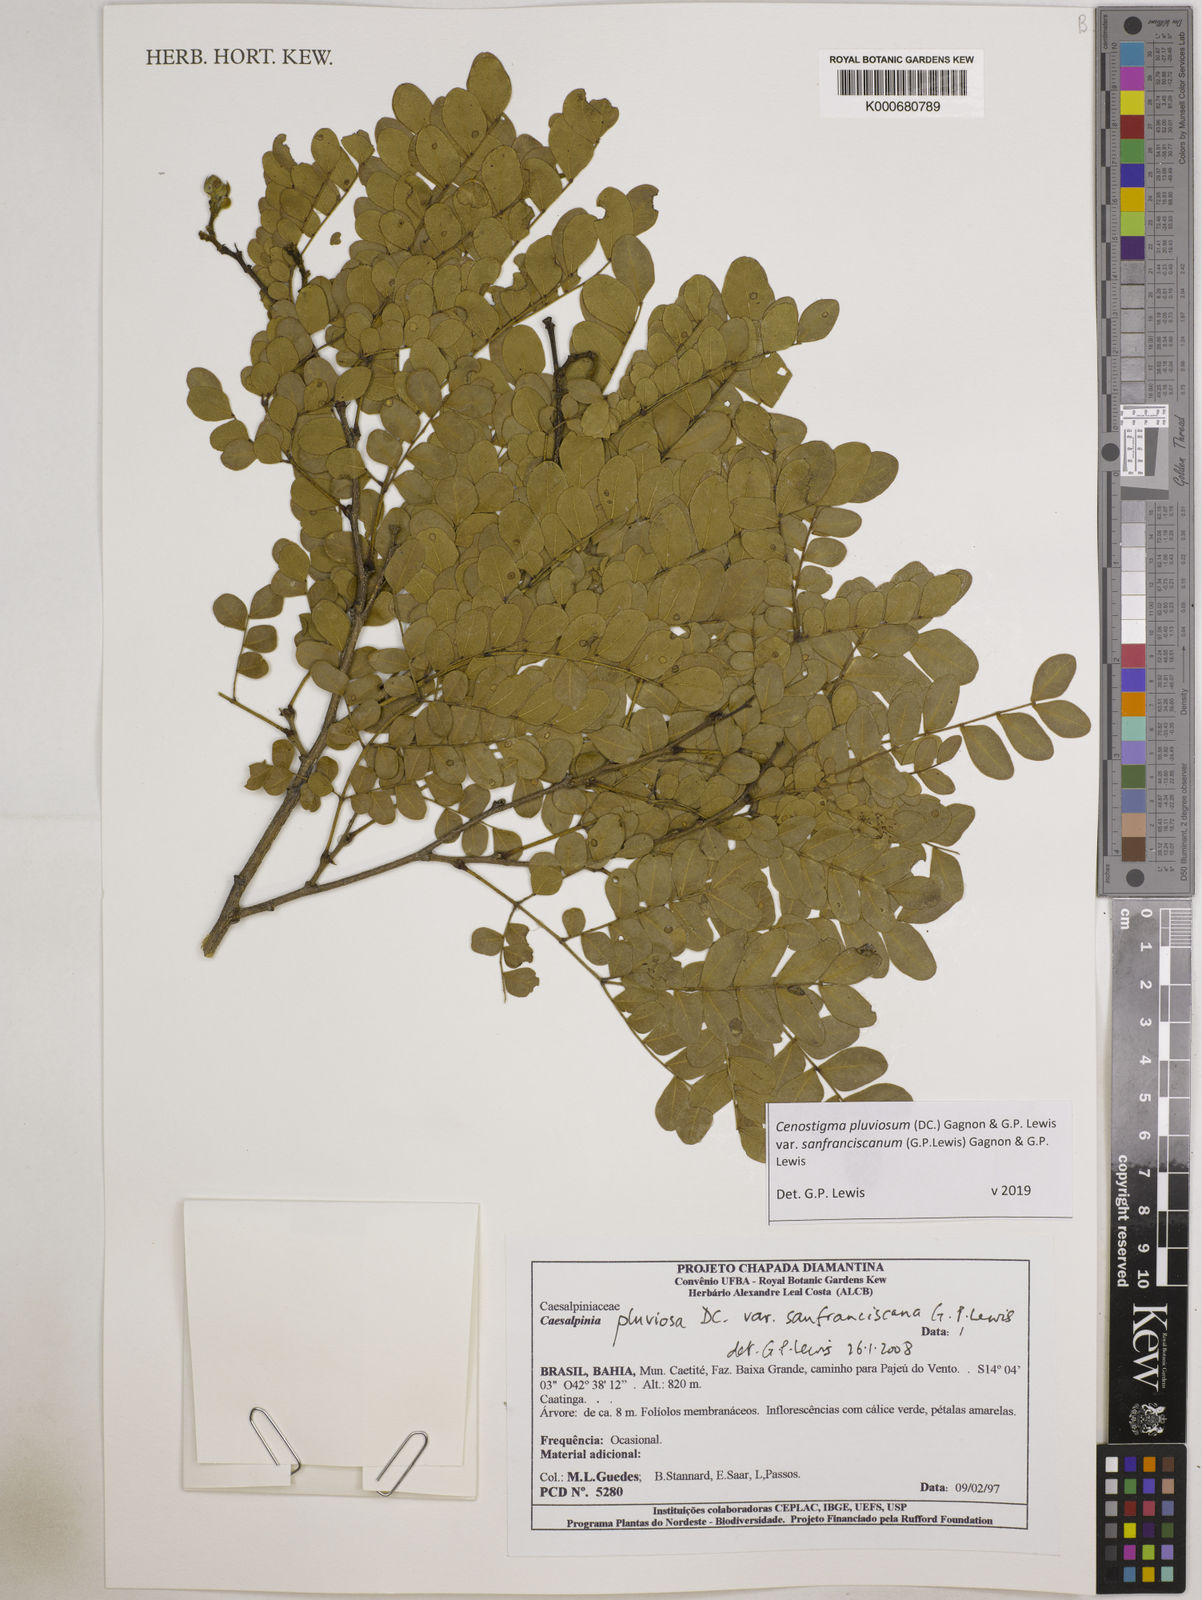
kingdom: Plantae
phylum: Tracheophyta
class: Magnoliopsida
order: Fabales
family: Fabaceae
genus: Cenostigma
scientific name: Cenostigma pluviosum
